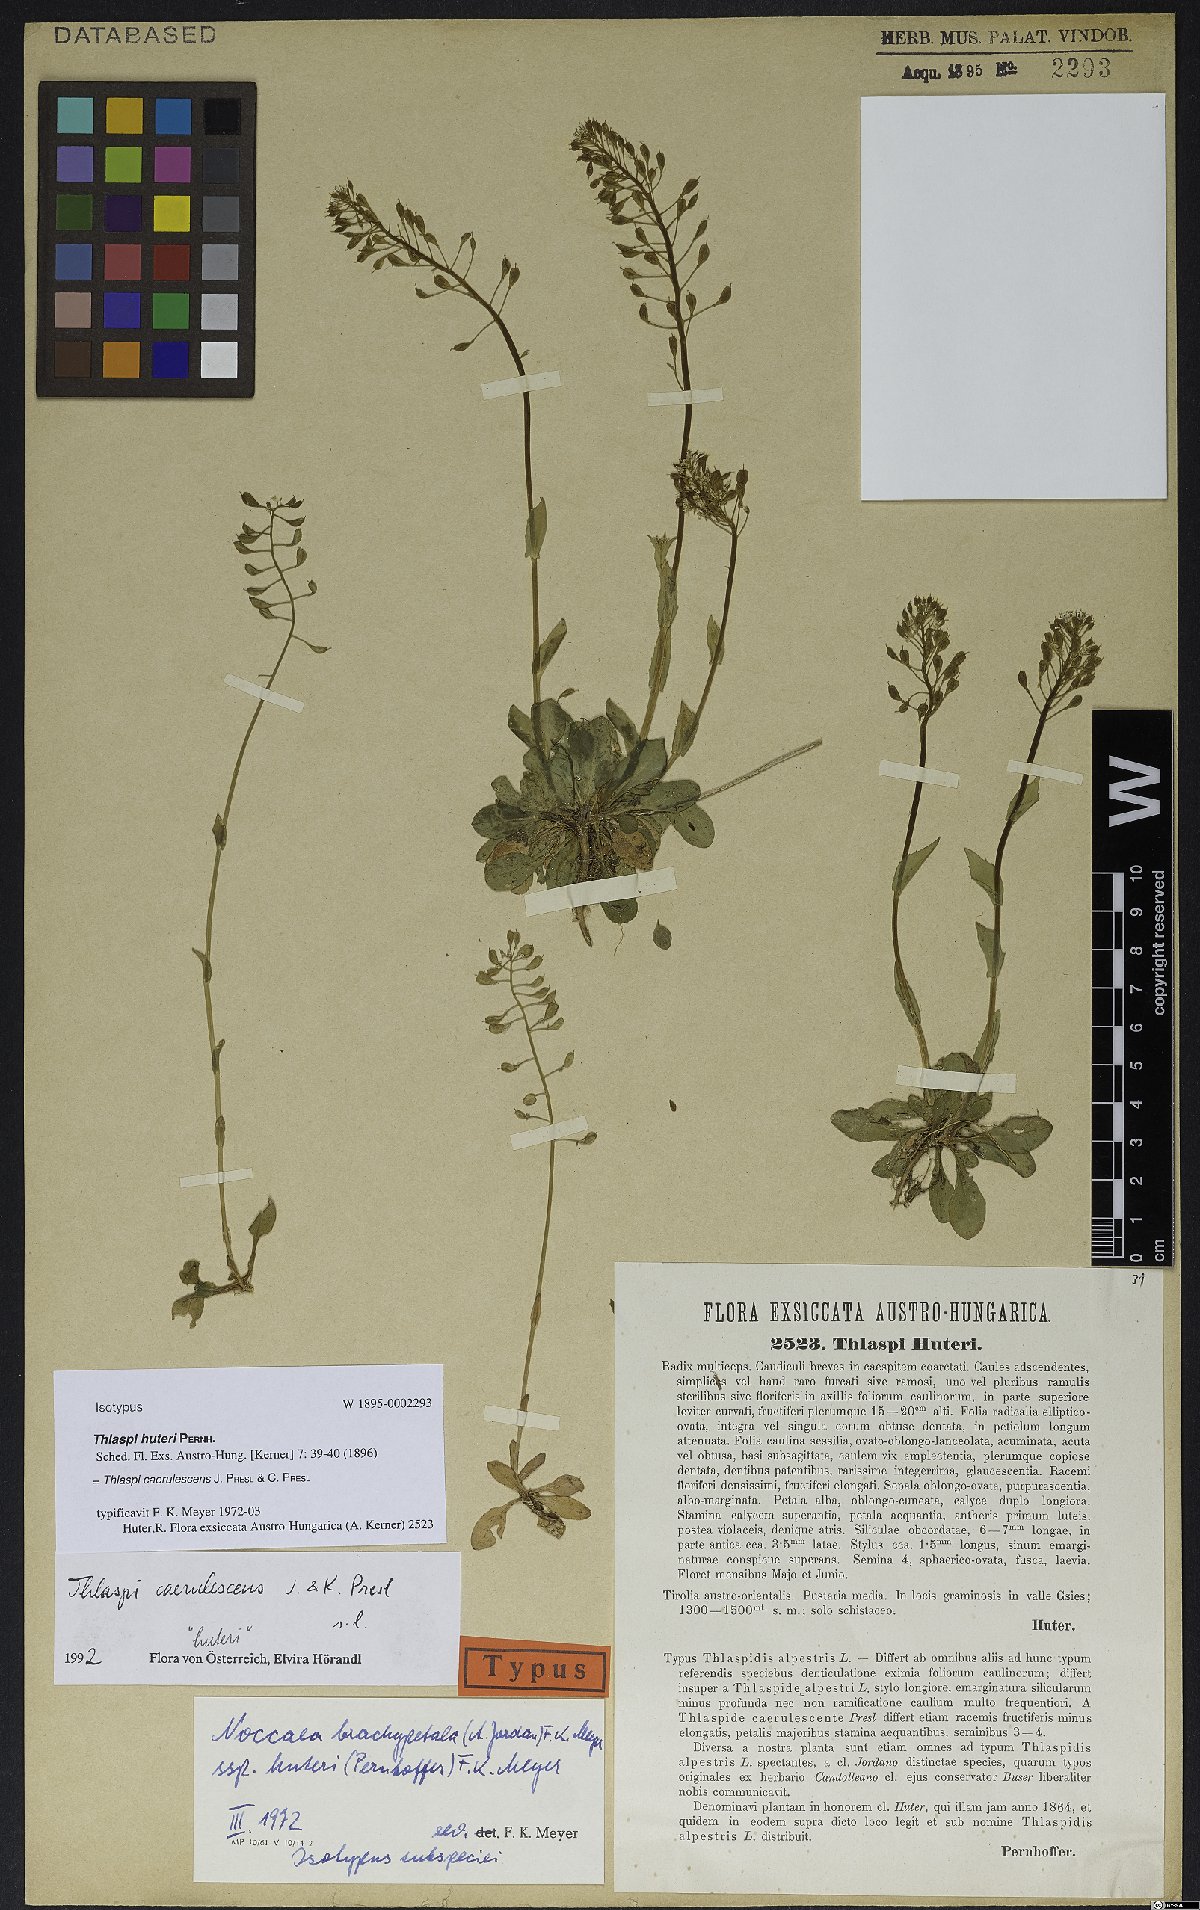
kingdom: Plantae
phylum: Tracheophyta
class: Magnoliopsida
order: Brassicales
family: Brassicaceae
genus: Noccaea
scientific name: Noccaea caerulescens
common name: Alpine pennycress
